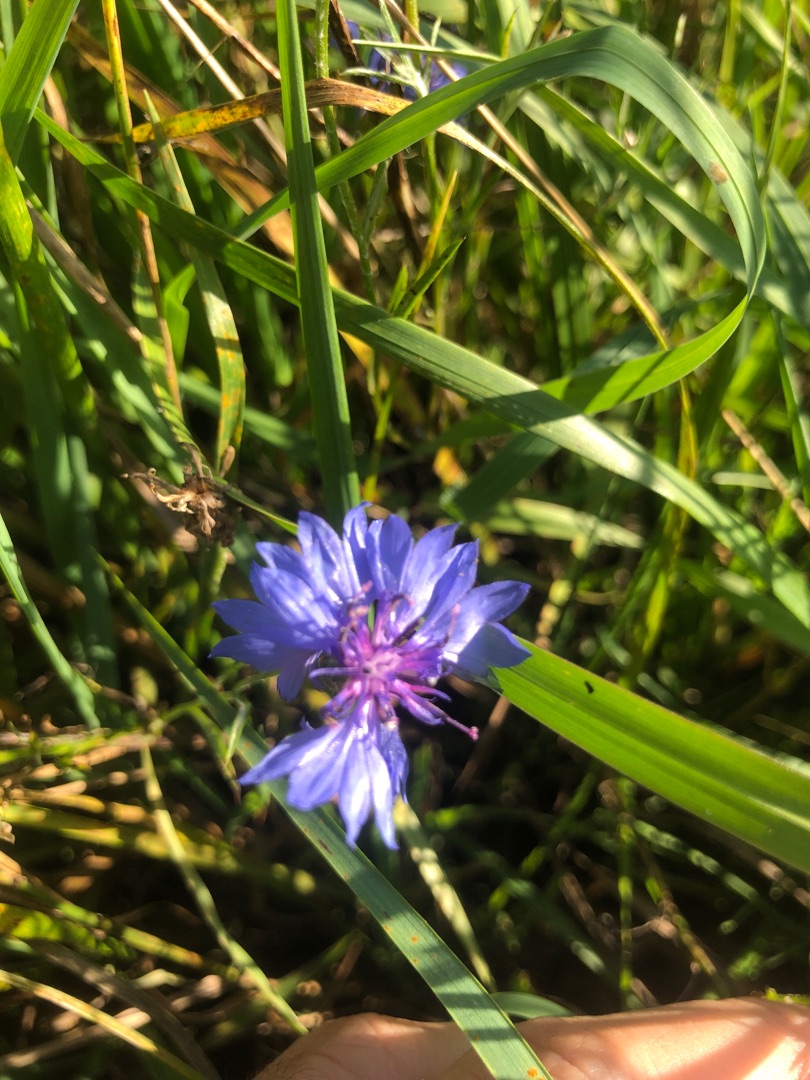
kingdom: Plantae
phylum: Tracheophyta
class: Magnoliopsida
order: Asterales
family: Asteraceae
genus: Centaurea
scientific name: Centaurea cyanus
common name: Kornblomst
